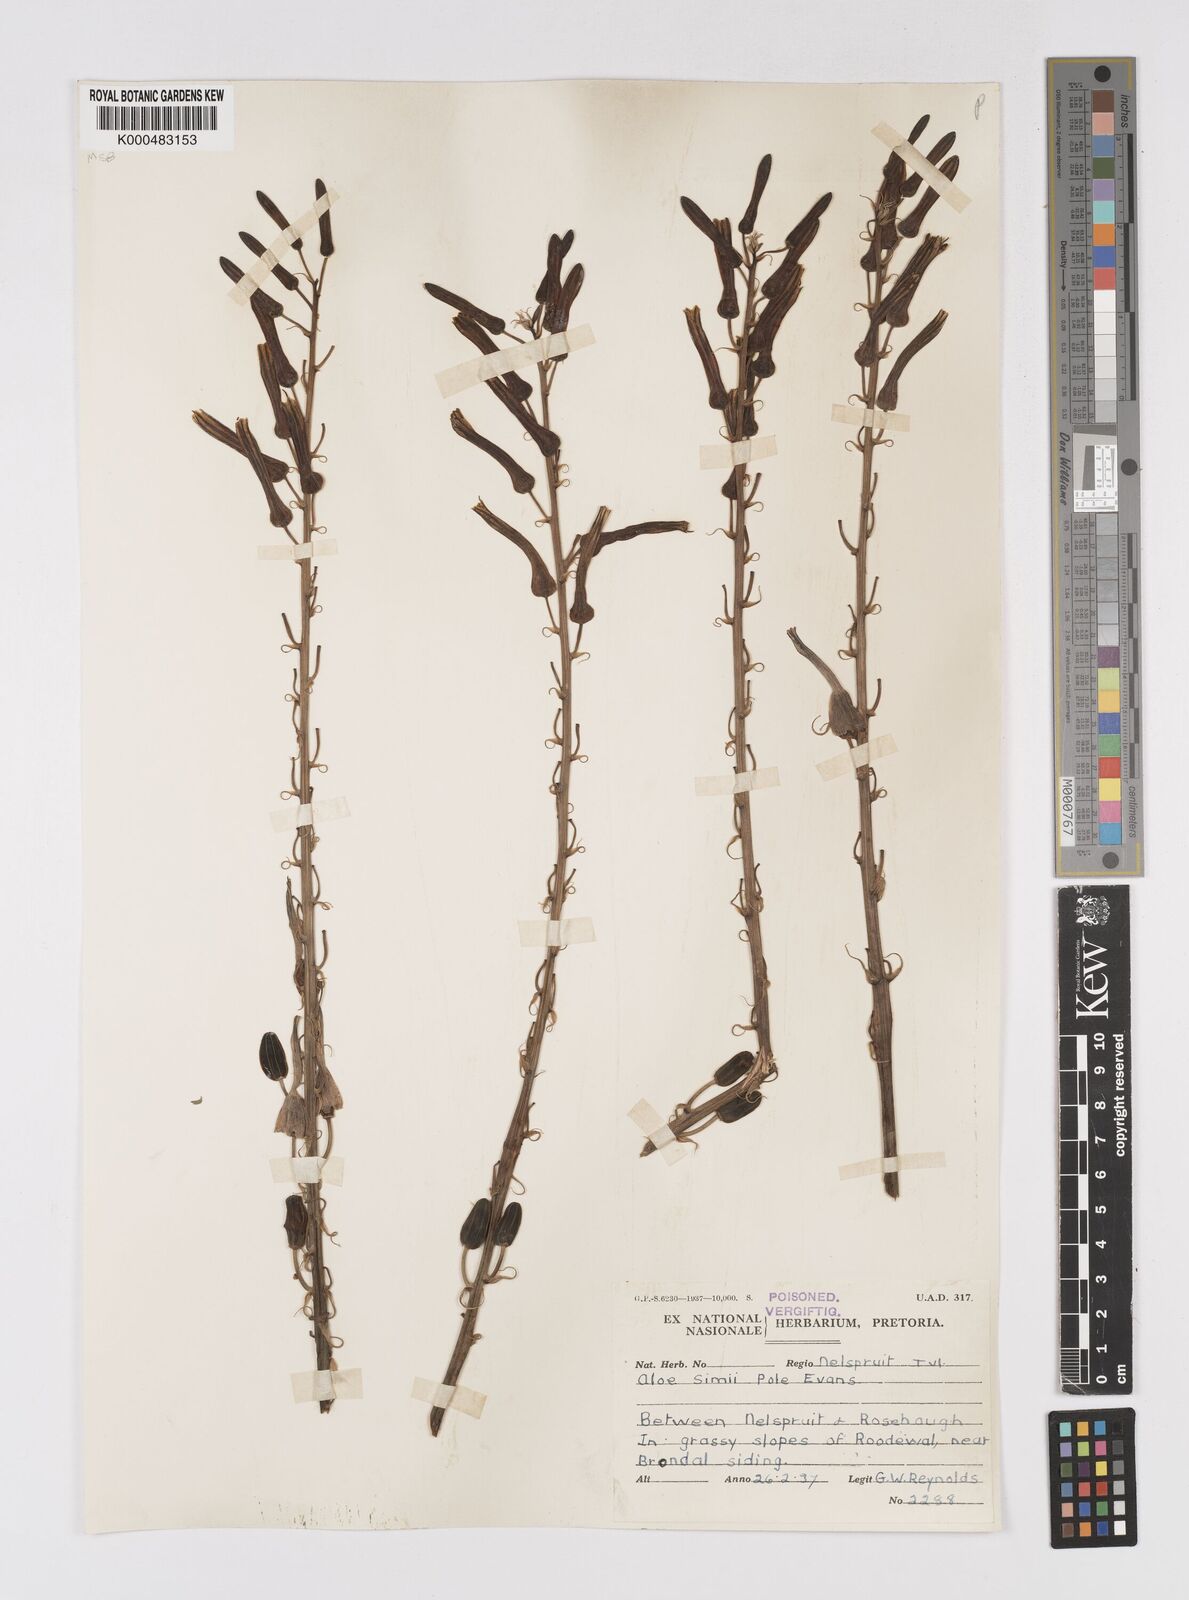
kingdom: Plantae
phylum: Tracheophyta
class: Liliopsida
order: Asparagales
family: Asphodelaceae
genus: Aloe
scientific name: Aloe simii
